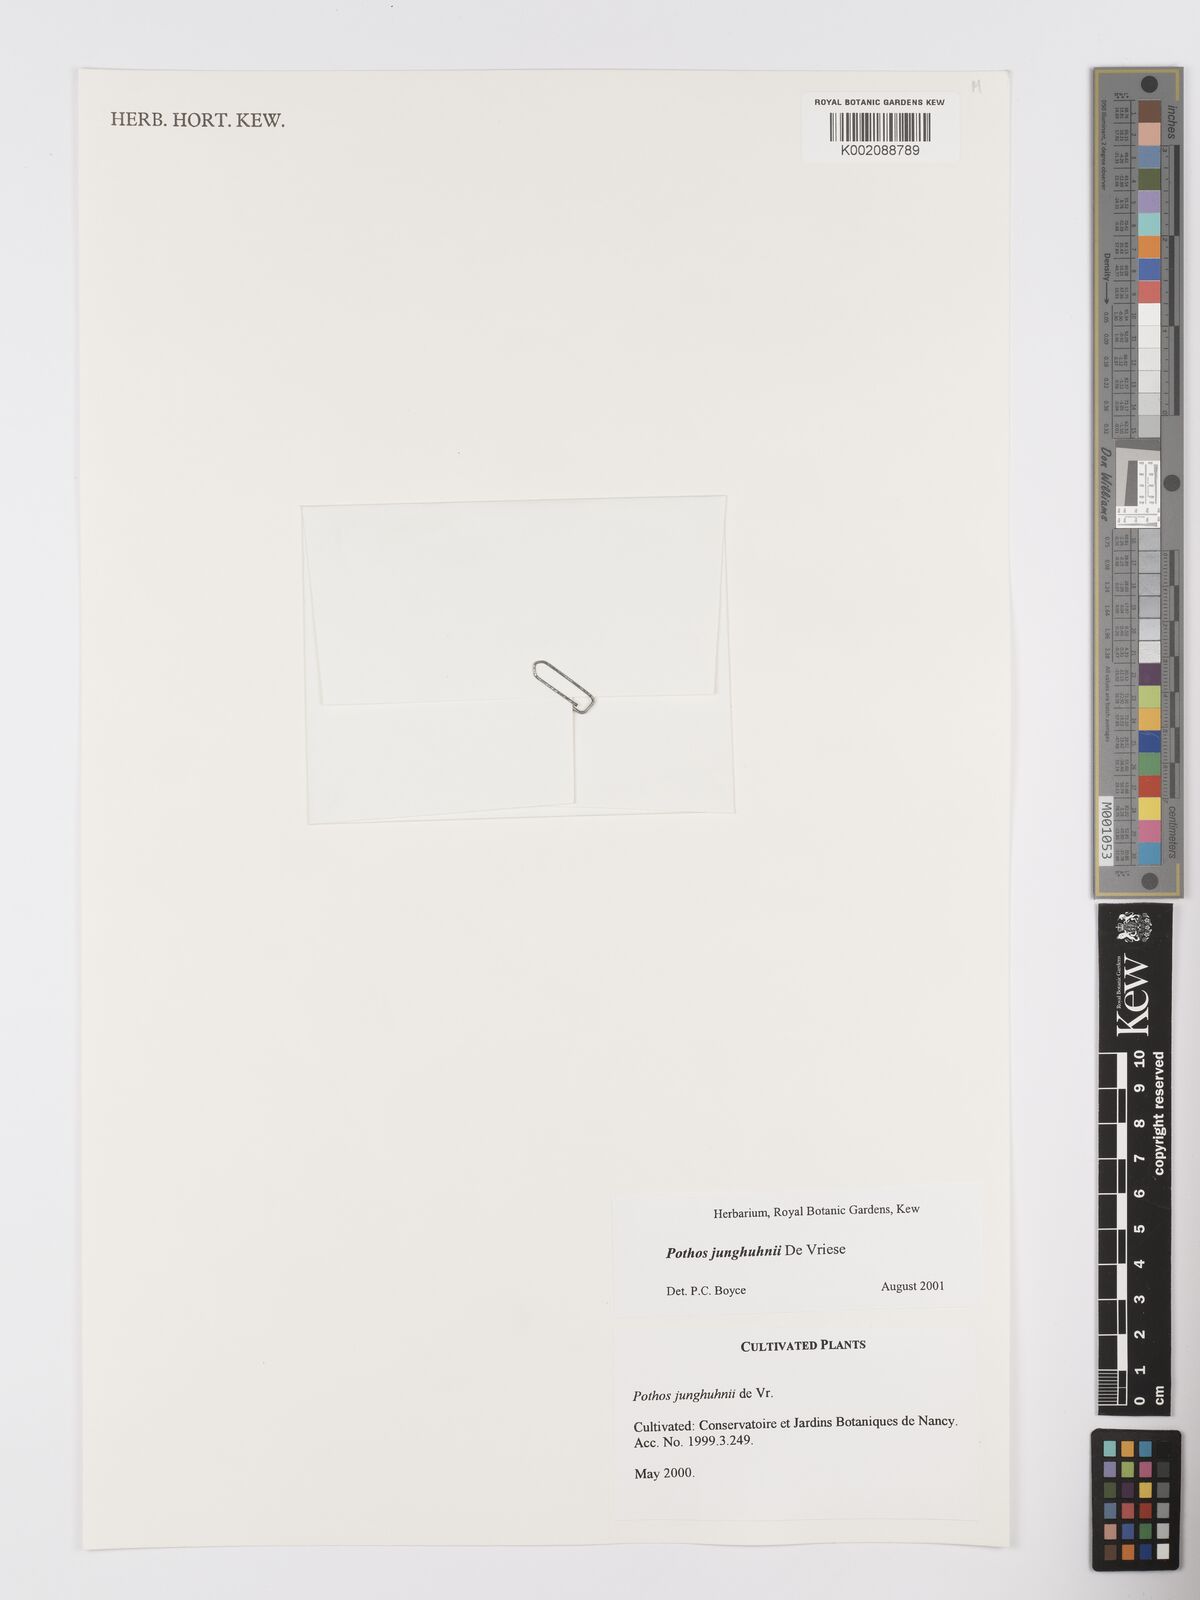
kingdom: Plantae
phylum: Tracheophyta
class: Liliopsida
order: Alismatales
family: Araceae
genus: Pothos
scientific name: Pothos junghuhnii
